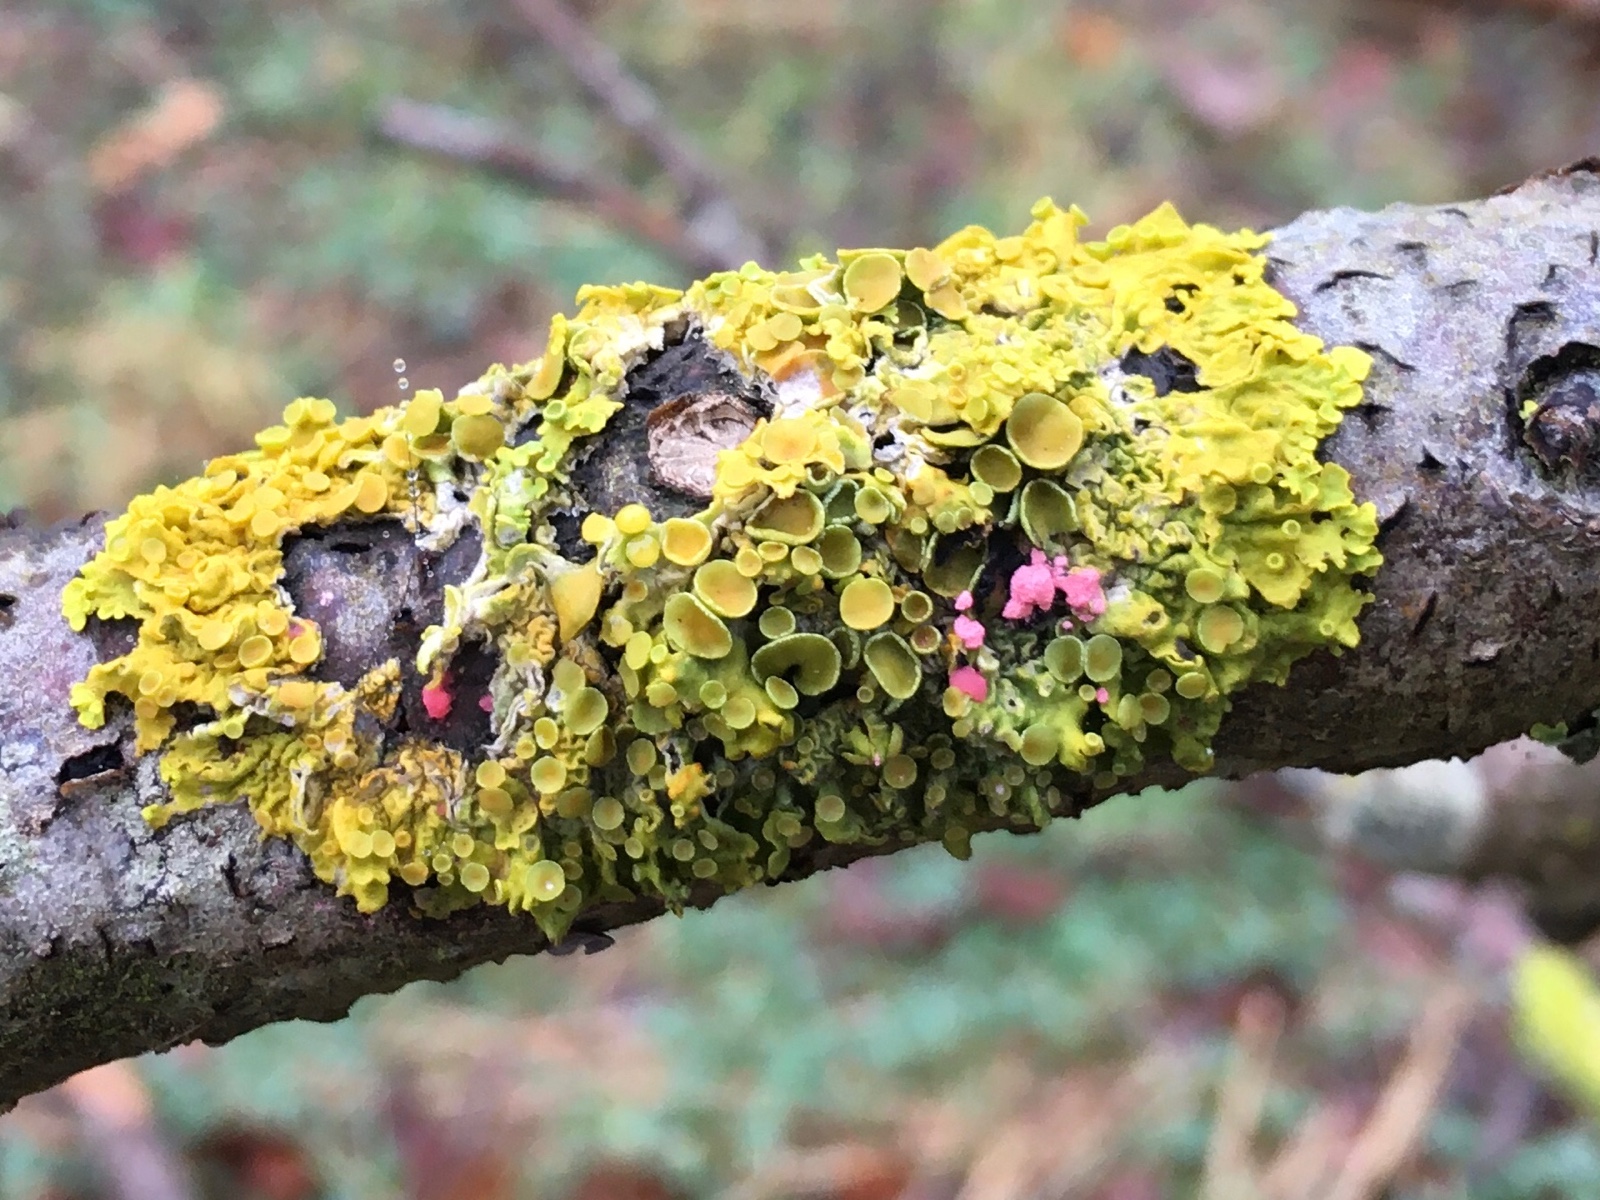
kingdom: Fungi
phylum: Ascomycota
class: Sordariomycetes
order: Hypocreales
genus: Illosporiopsis
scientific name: Illosporiopsis christiansenii
